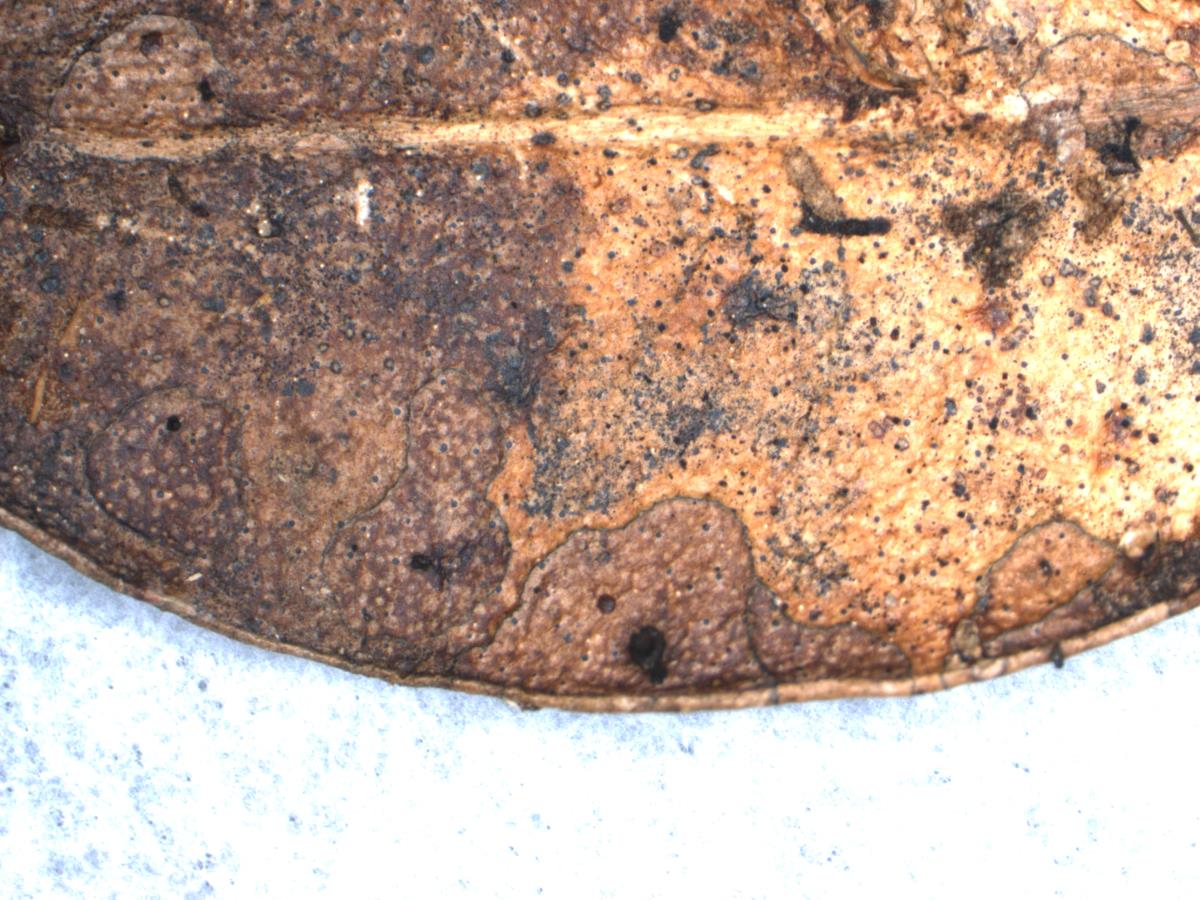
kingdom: Fungi
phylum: Ascomycota
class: Leotiomycetes
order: Helotiales
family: Rutstroemiaceae
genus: Lanzia
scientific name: Lanzia berggrenii
